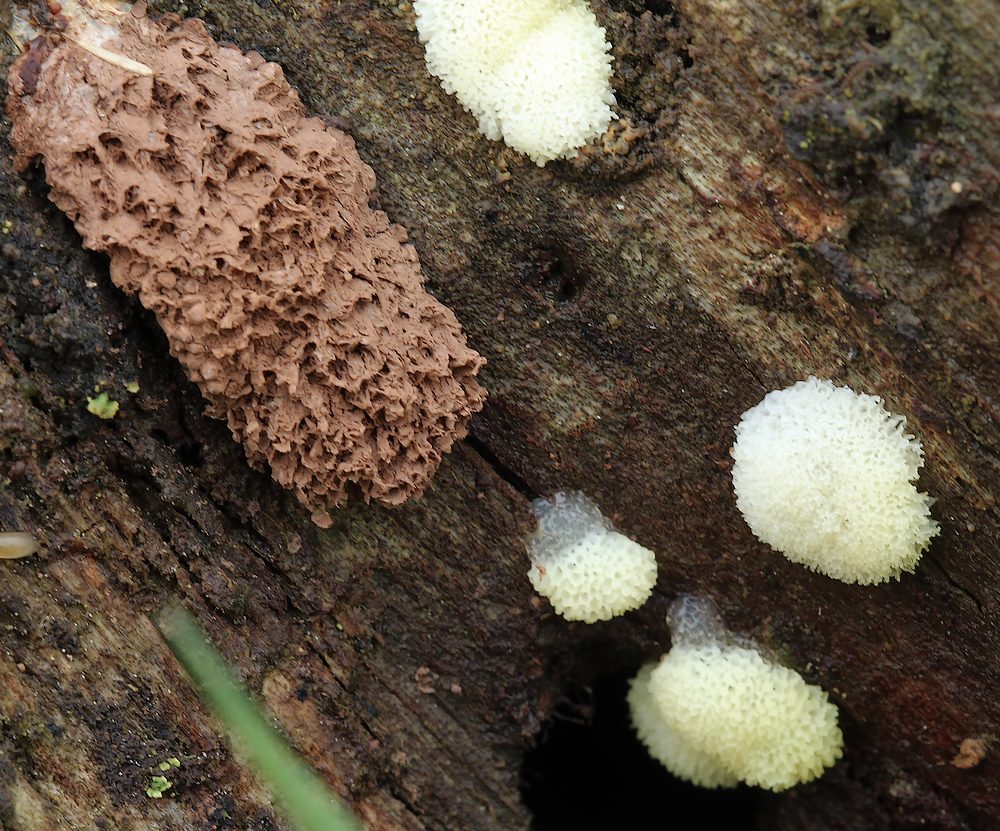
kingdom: Protozoa
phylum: Mycetozoa
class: Protosteliomycetes
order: Ceratiomyxales
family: Ceratiomyxaceae
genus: Ceratiomyxa
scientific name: Ceratiomyxa fruticulosa
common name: Honeycomb coral slime mold
